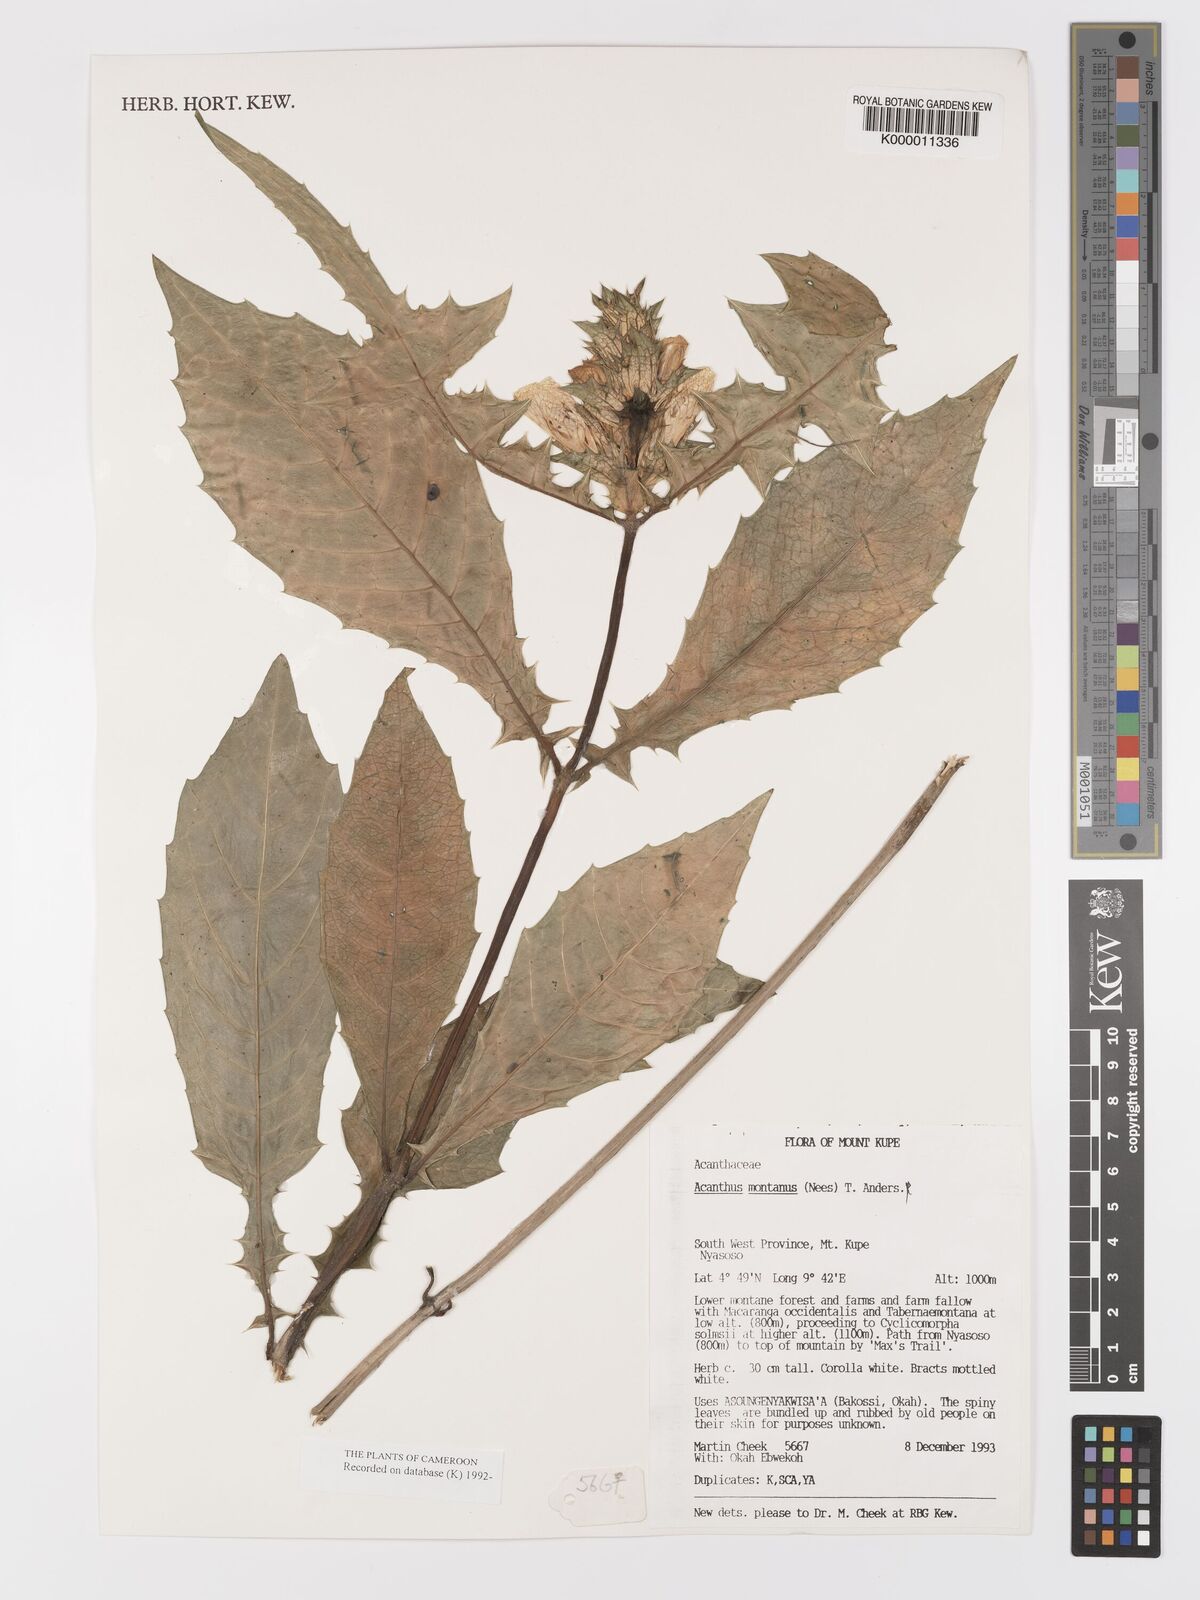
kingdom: Plantae
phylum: Tracheophyta
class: Magnoliopsida
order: Lamiales
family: Acanthaceae
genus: Acanthus
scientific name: Acanthus montanus
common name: Mountain thistle
